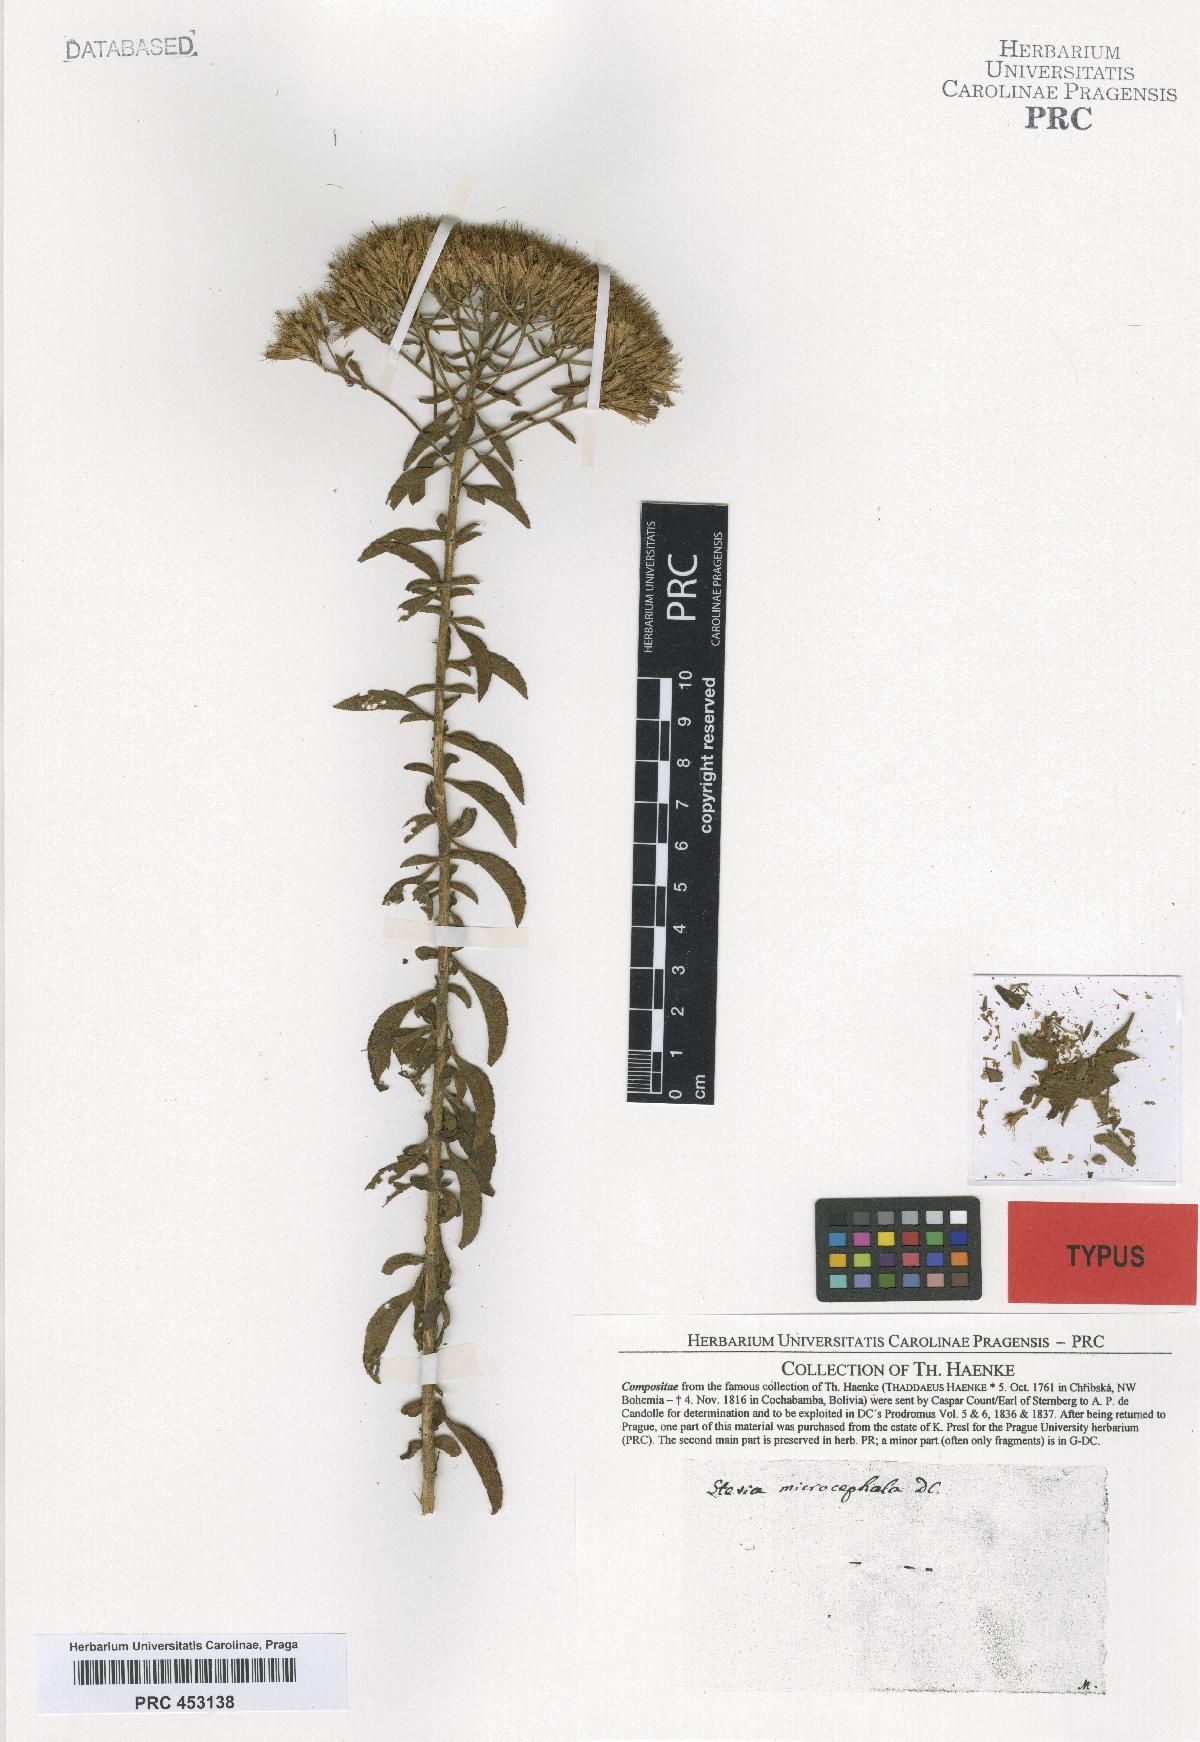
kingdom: Plantae
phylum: Tracheophyta
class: Magnoliopsida
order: Asterales
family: Asteraceae
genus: Stevia
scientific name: Stevia serrata
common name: Sawtooth candyleaf
